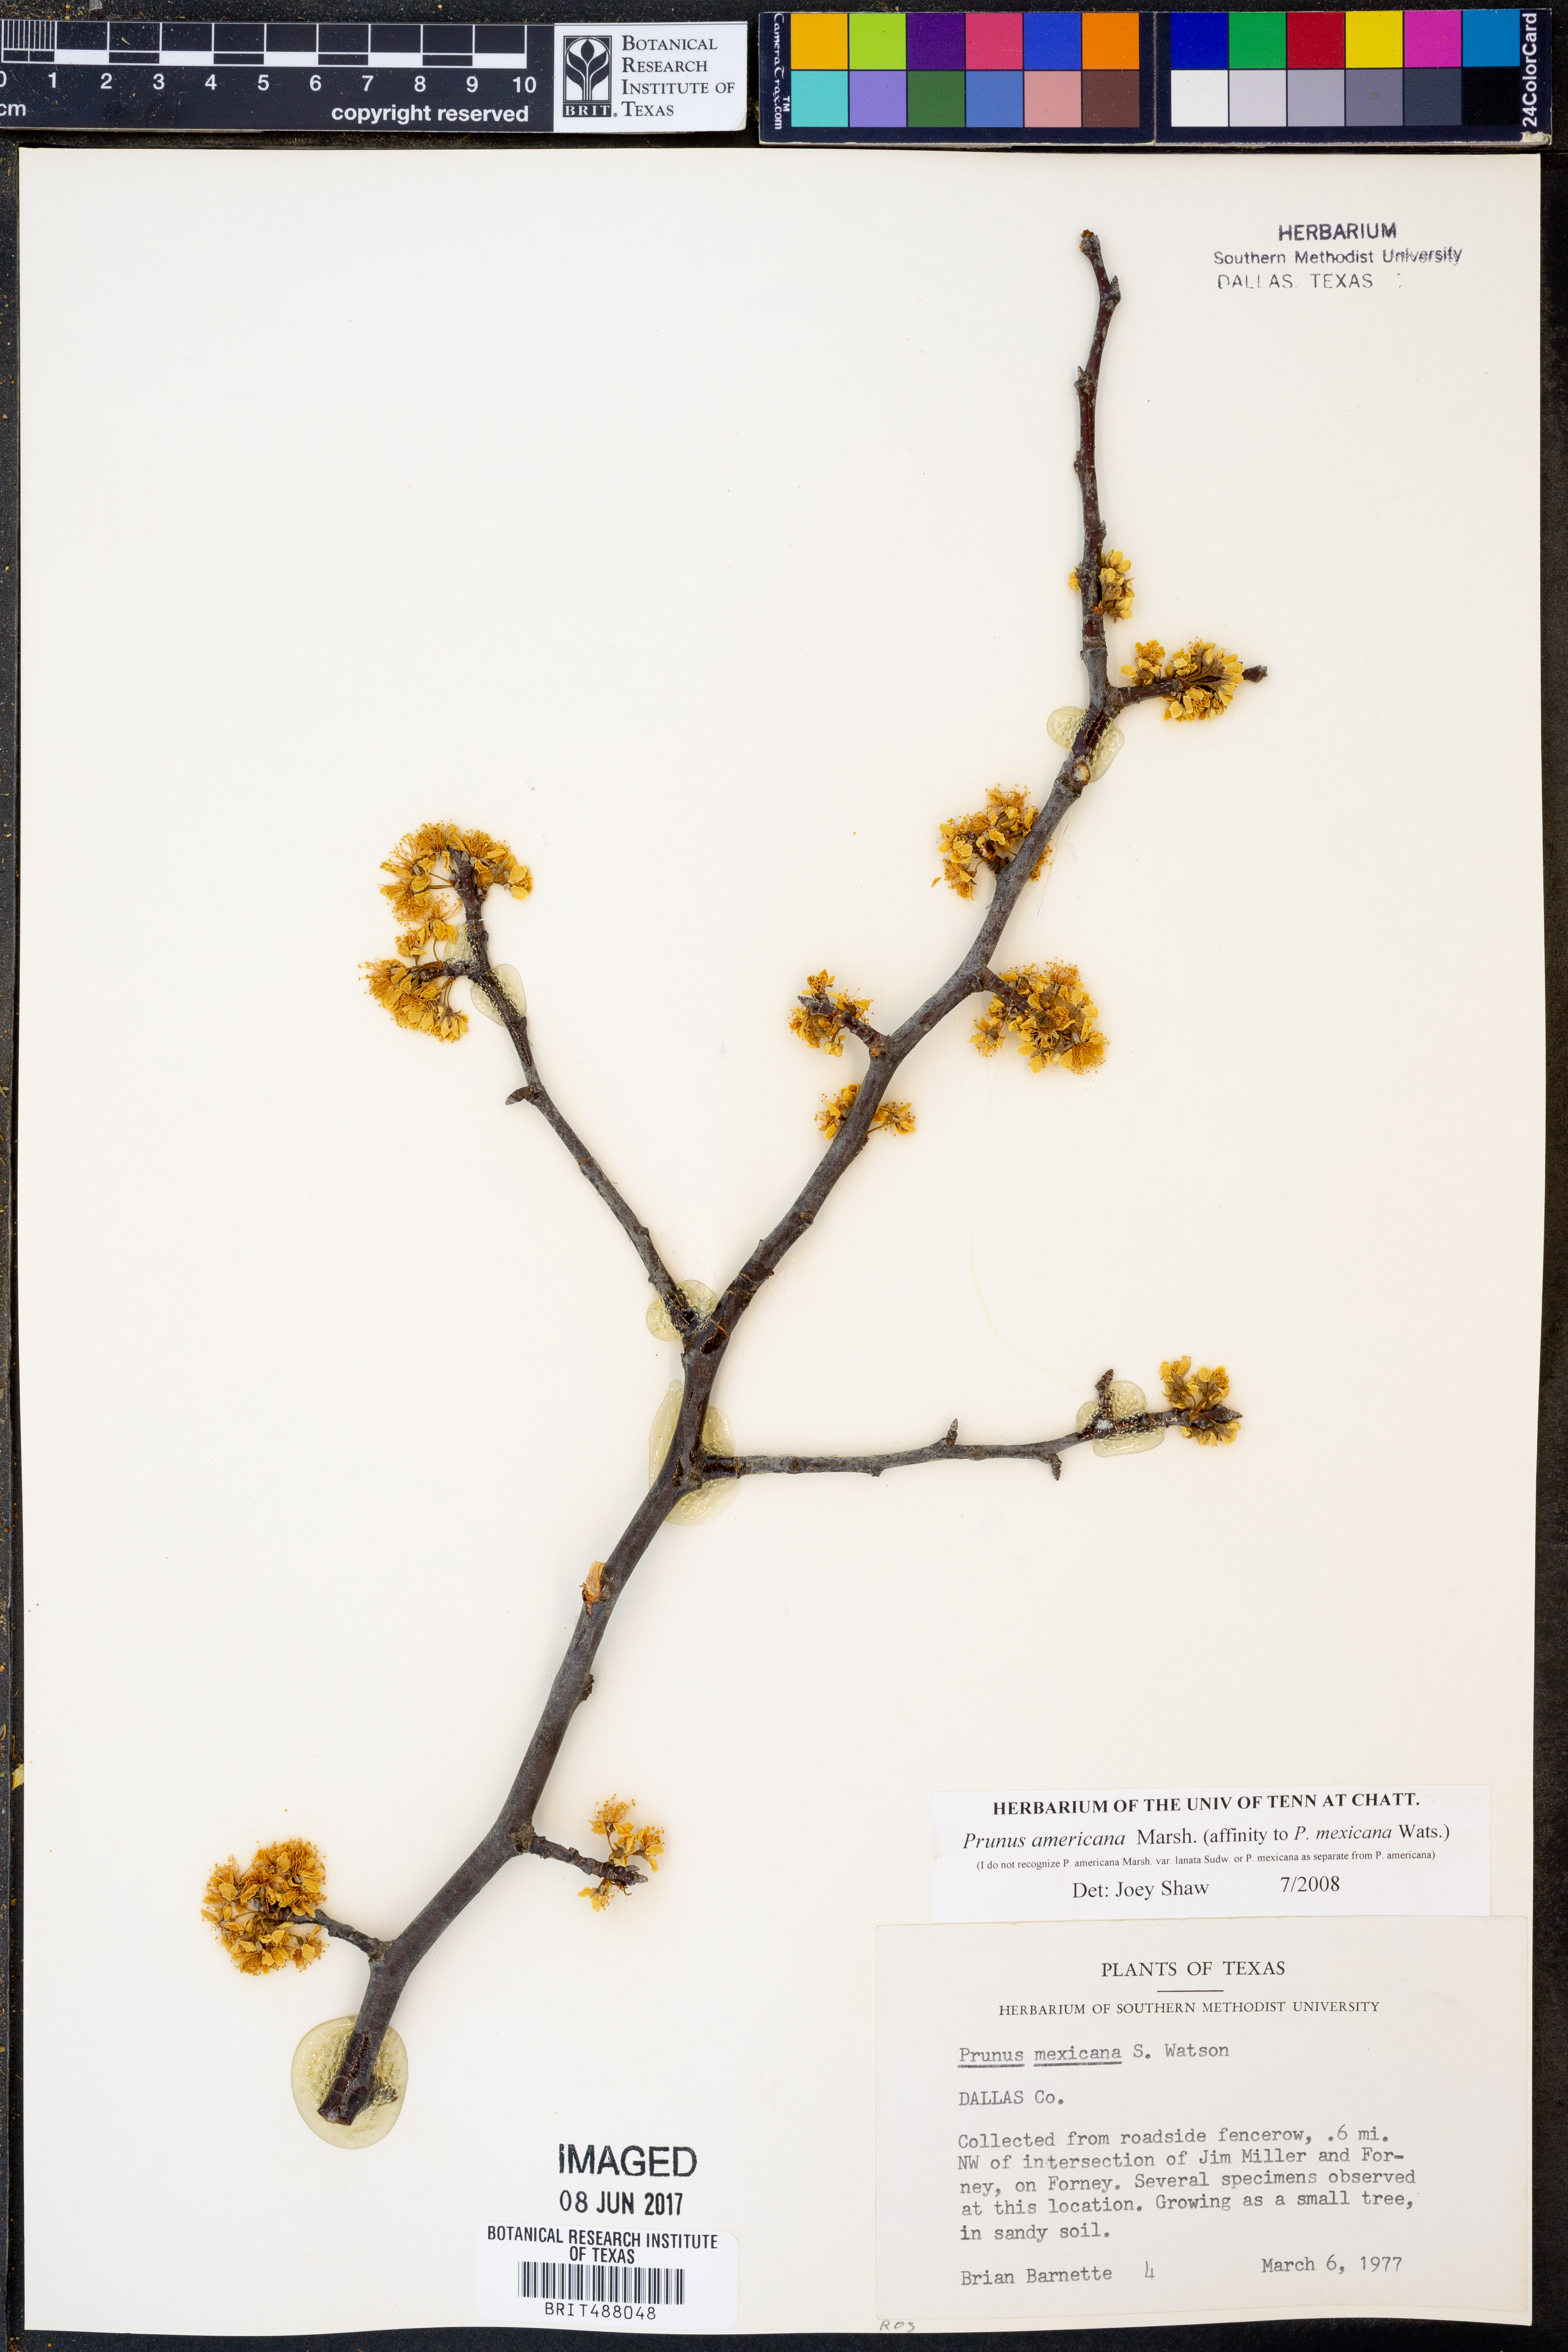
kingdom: Plantae
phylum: Tracheophyta
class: Magnoliopsida
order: Rosales
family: Rosaceae
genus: Prunus
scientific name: Prunus americana
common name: American plum
